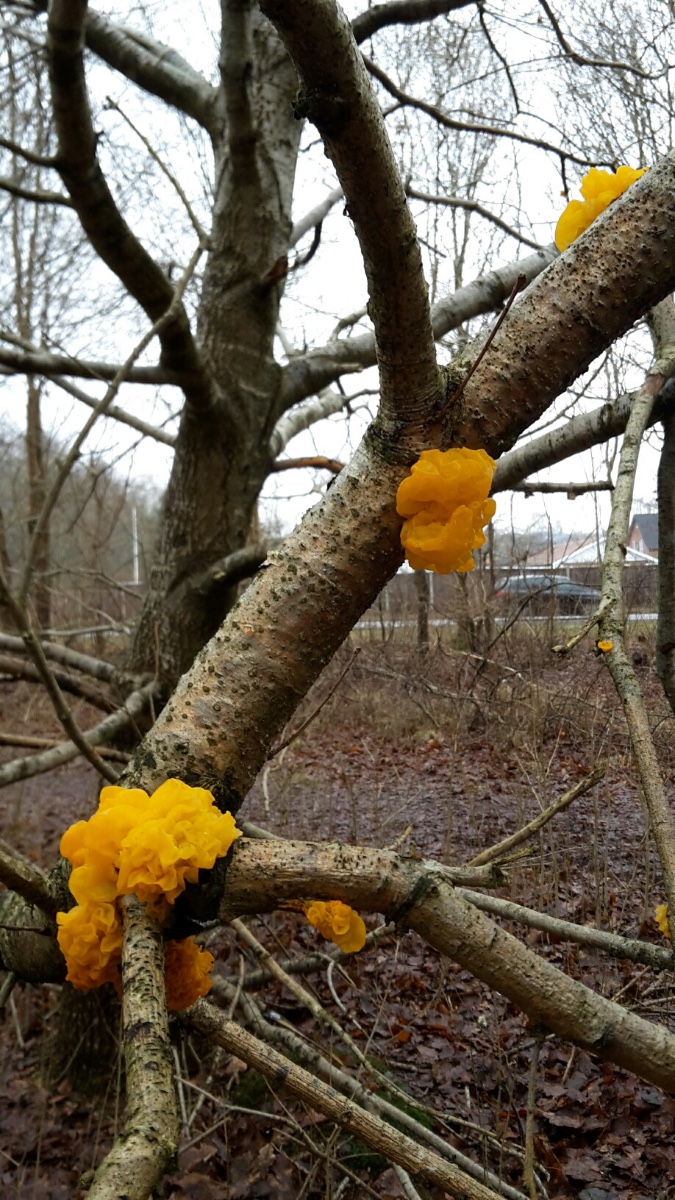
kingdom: Fungi
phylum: Basidiomycota
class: Tremellomycetes
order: Tremellales
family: Tremellaceae
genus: Tremella
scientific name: Tremella mesenterica
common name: gul bævresvamp
